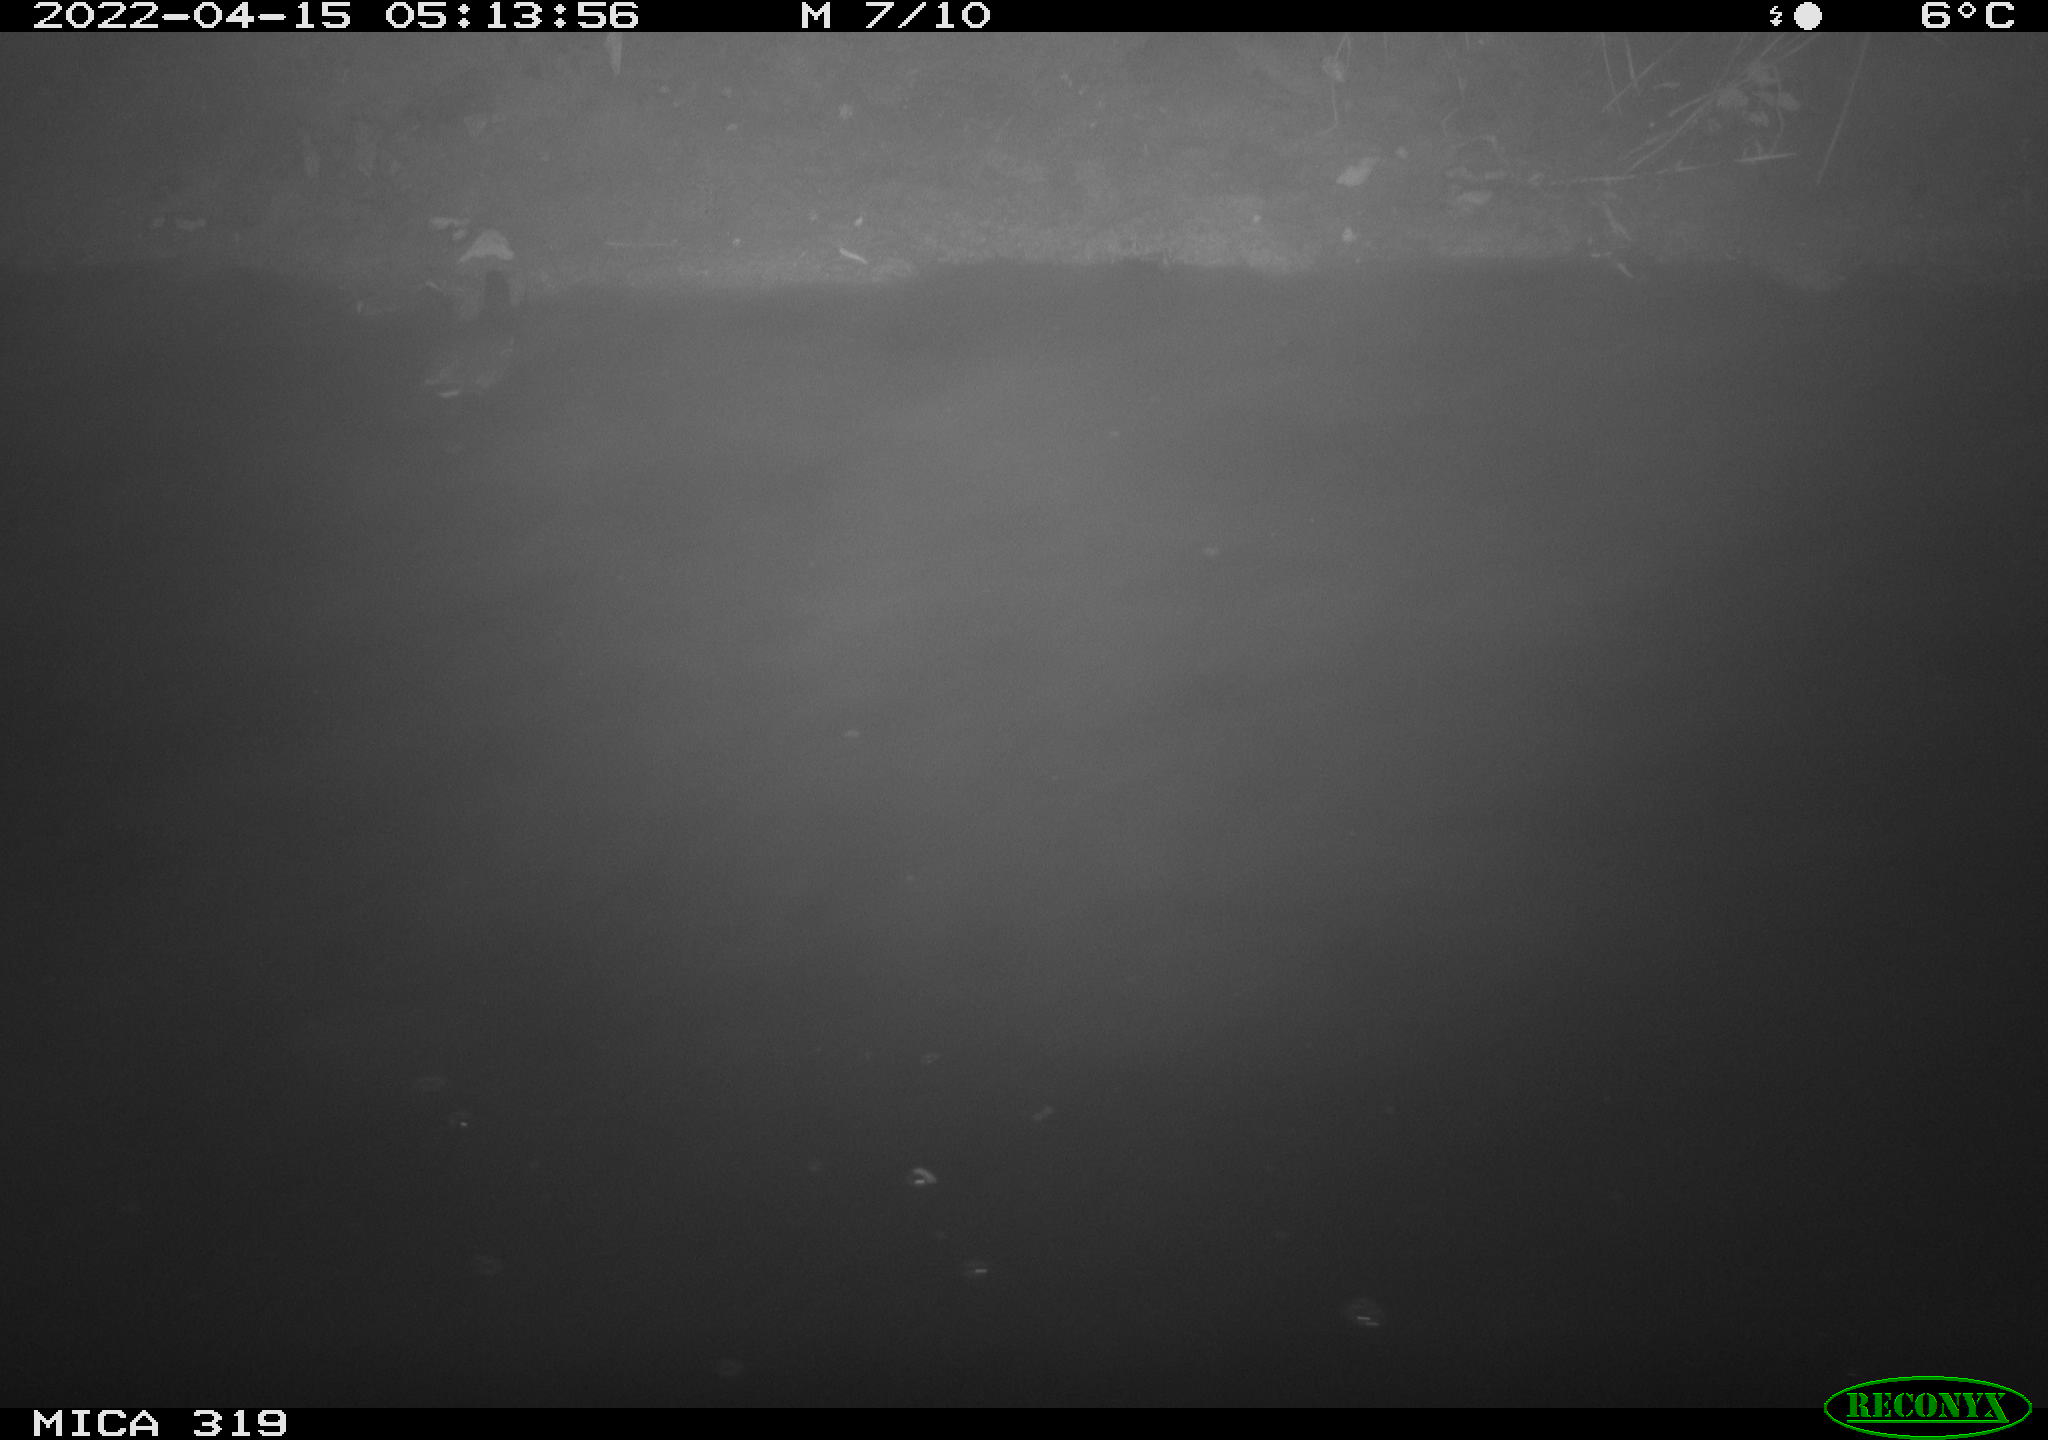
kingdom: Animalia
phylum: Chordata
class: Aves
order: Gruiformes
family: Rallidae
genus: Gallinula
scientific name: Gallinula chloropus
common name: Common moorhen
